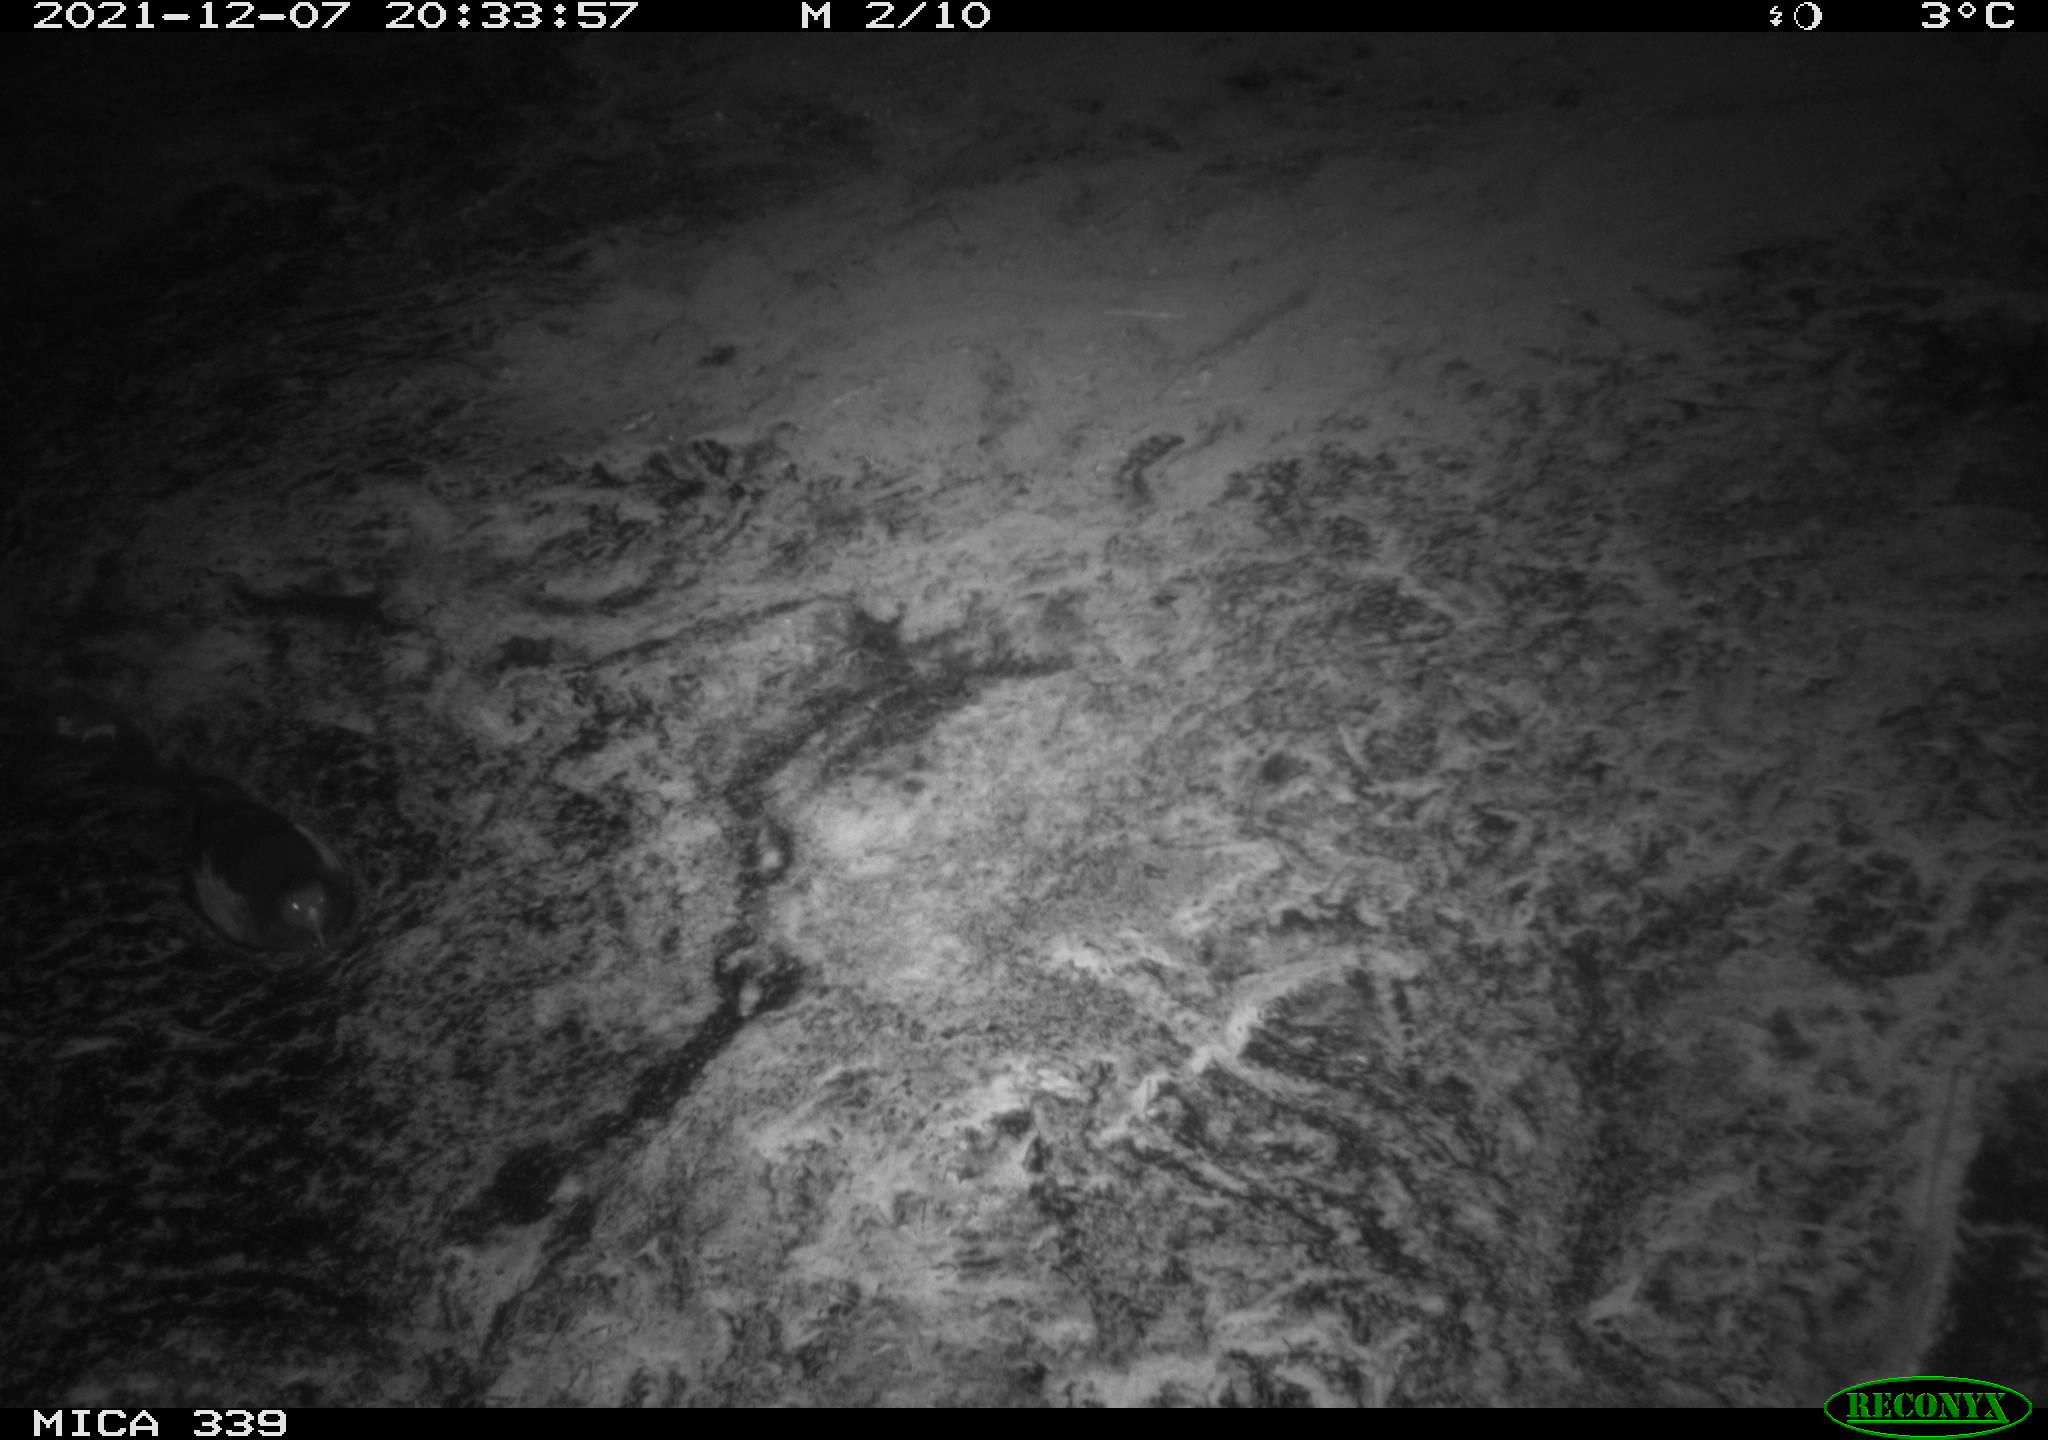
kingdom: Animalia
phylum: Chordata
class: Aves
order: Gruiformes
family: Rallidae
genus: Gallinula
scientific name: Gallinula chloropus
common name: Common moorhen
